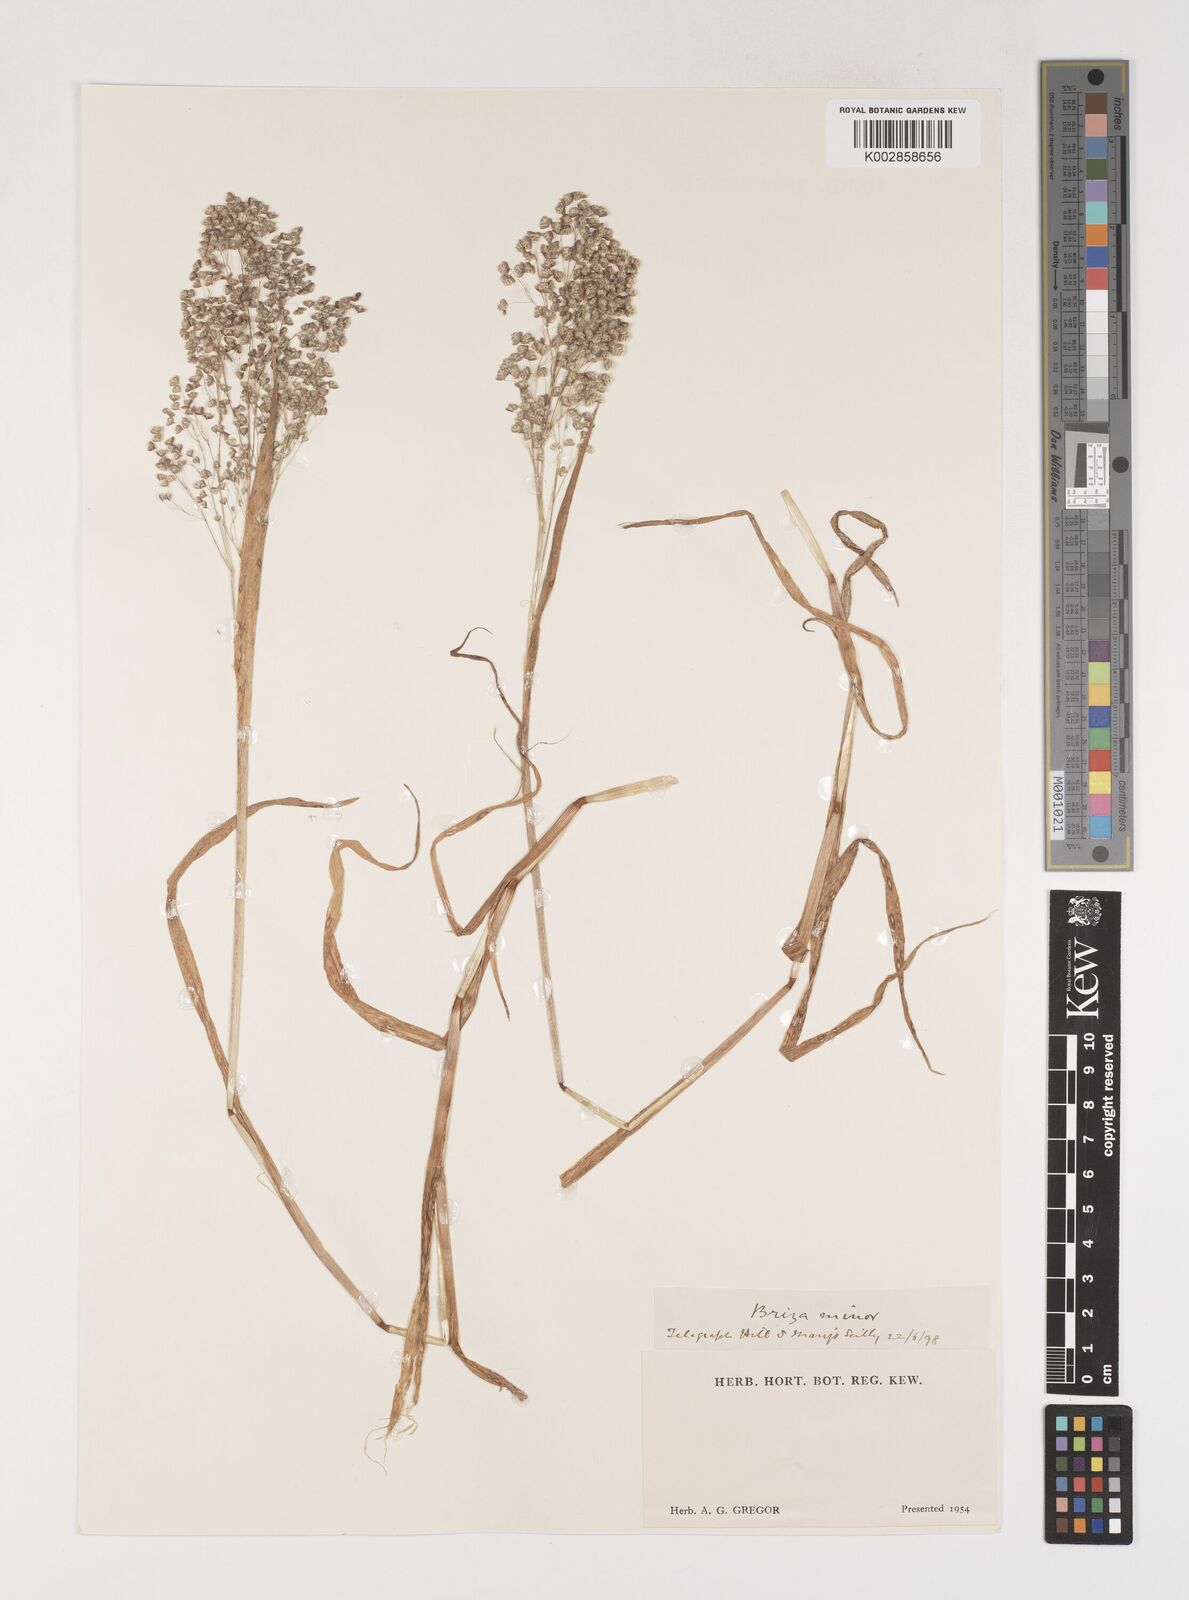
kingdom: Plantae
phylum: Tracheophyta
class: Liliopsida
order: Poales
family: Poaceae
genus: Briza
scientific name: Briza minor
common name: Lesser quaking-grass
